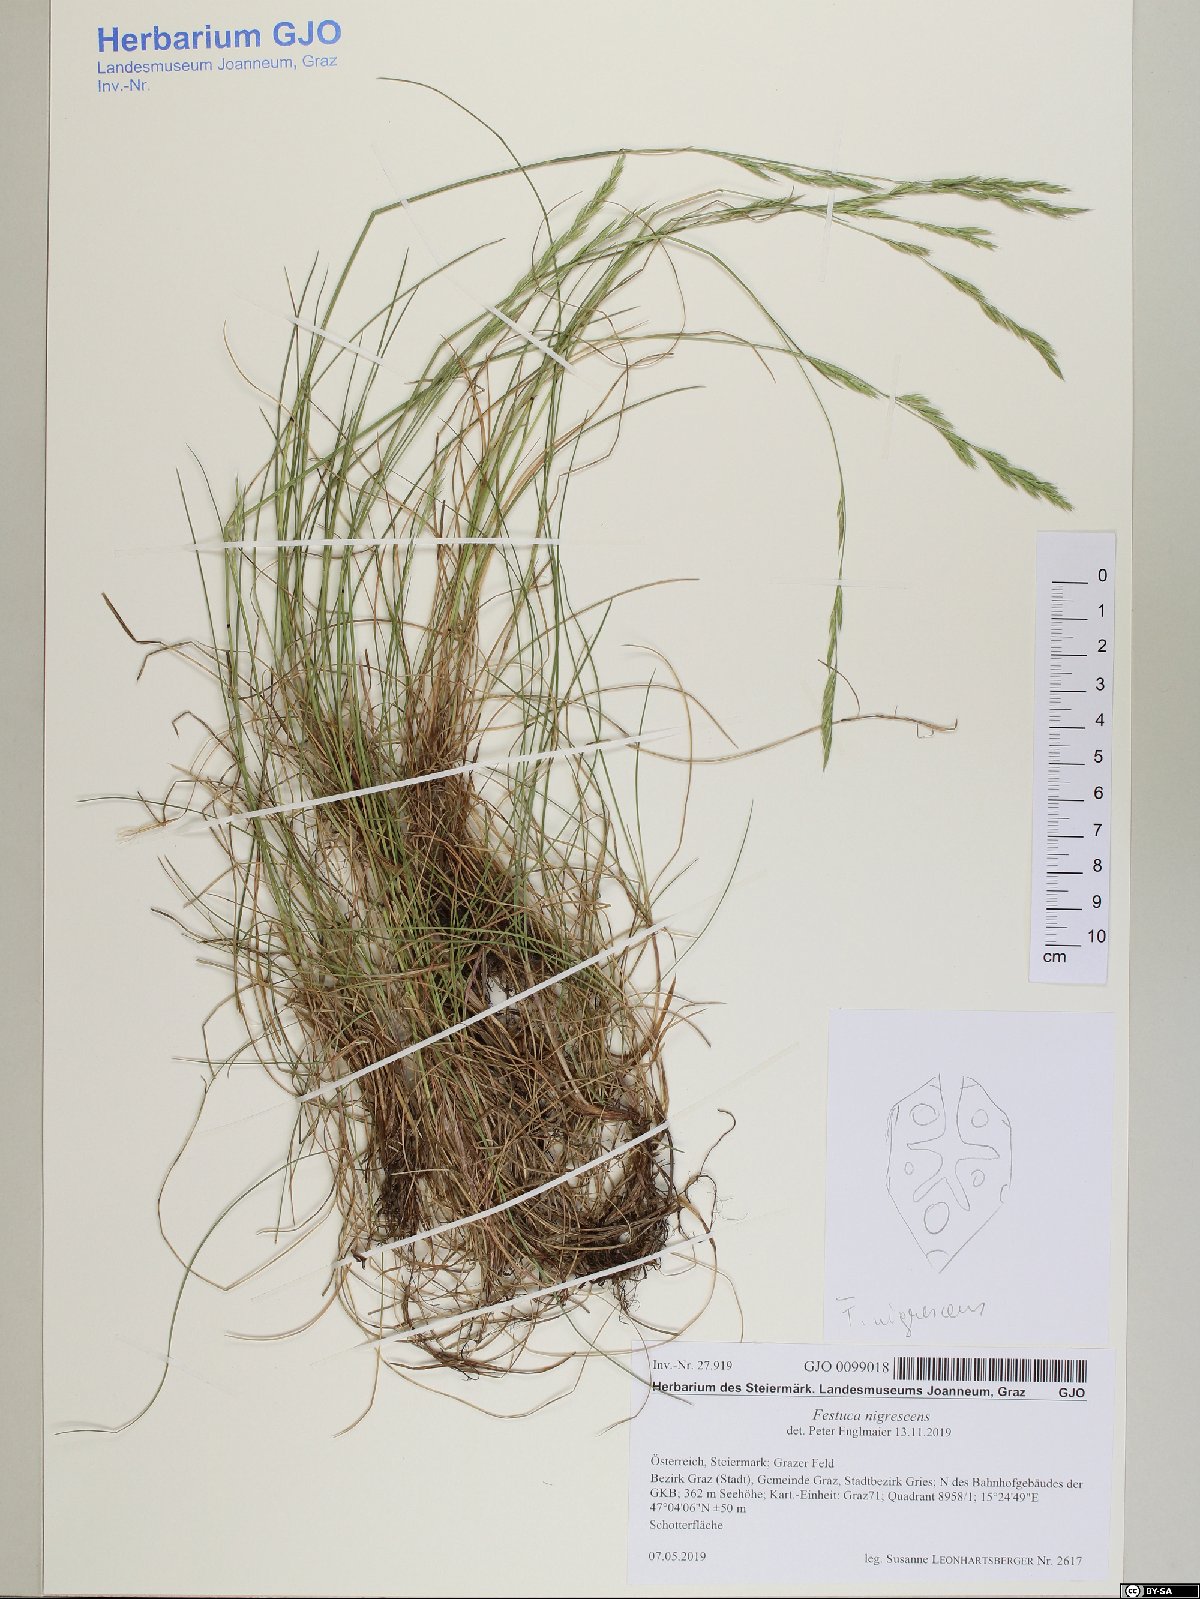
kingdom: Plantae
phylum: Tracheophyta
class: Liliopsida
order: Poales
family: Poaceae
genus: Festuca
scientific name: Festuca nigrescens
